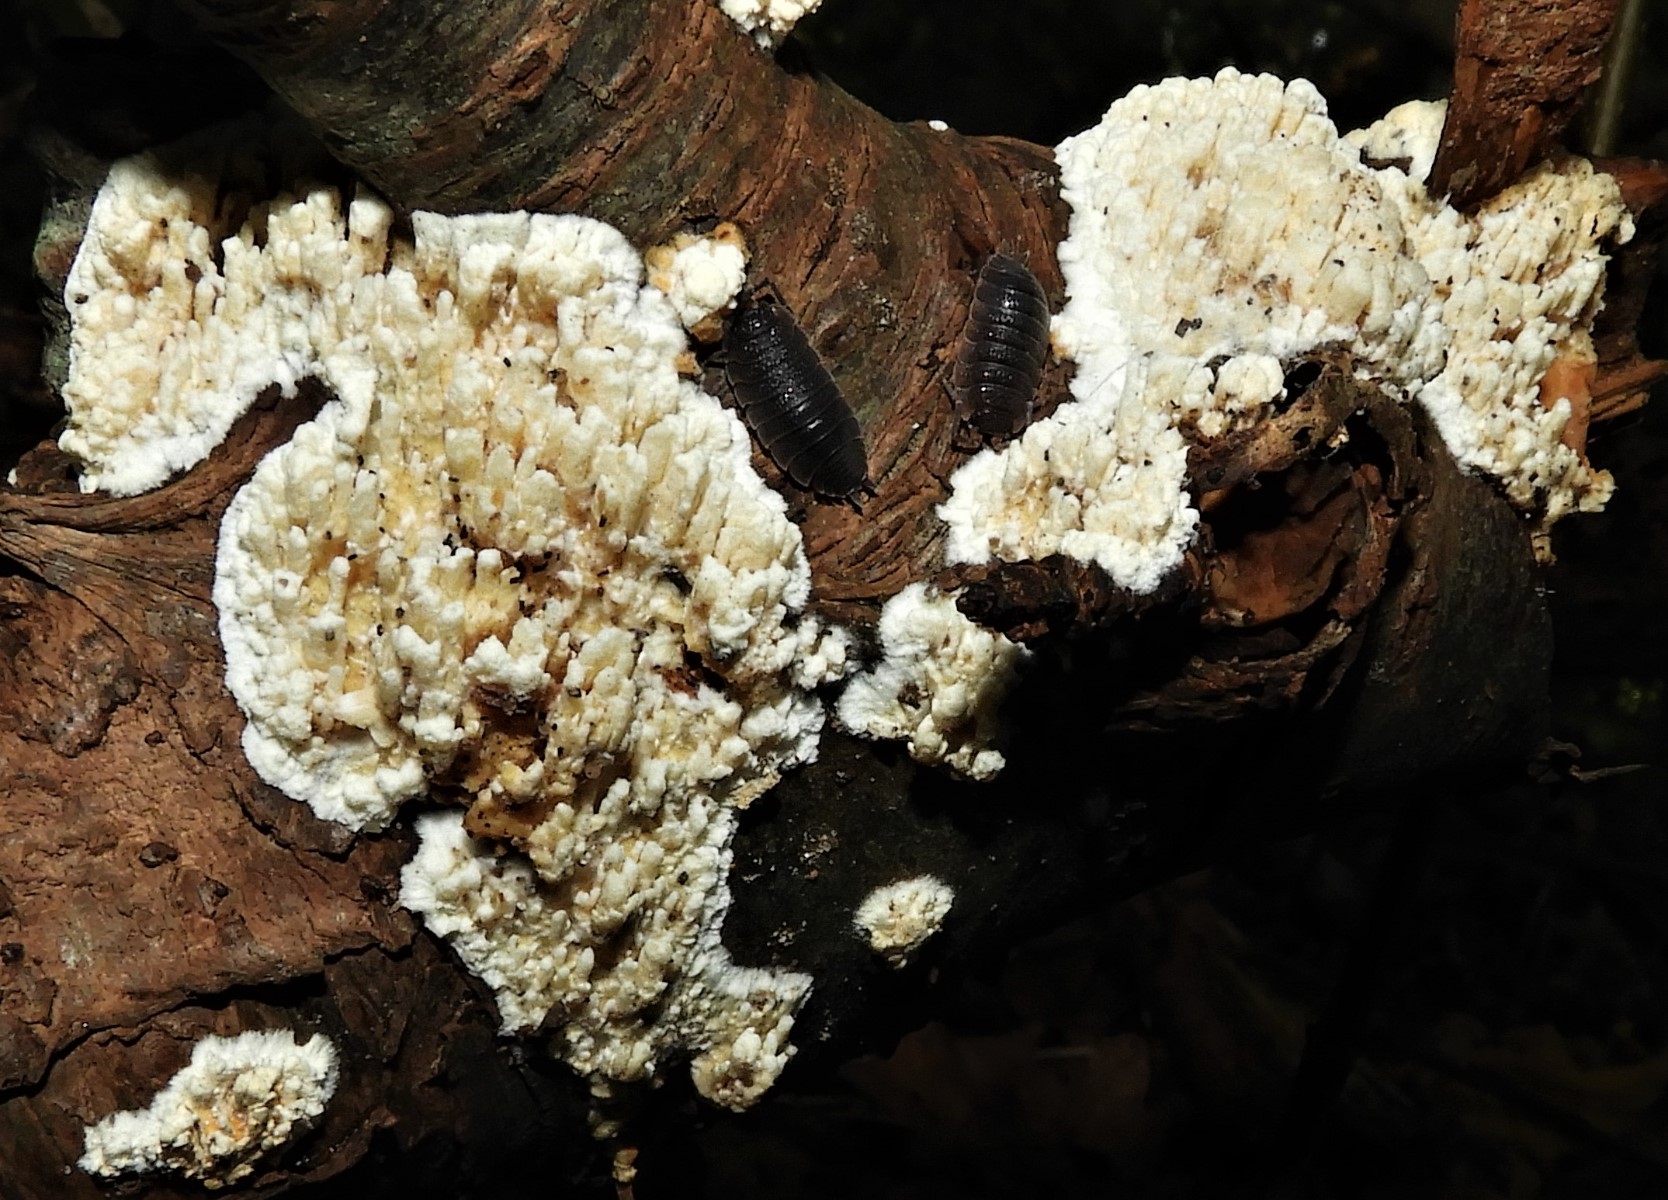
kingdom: Fungi
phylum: Basidiomycota
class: Agaricomycetes
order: Hymenochaetales
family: Schizoporaceae
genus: Xylodon
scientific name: Xylodon radula
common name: grovtandet kalkskind
